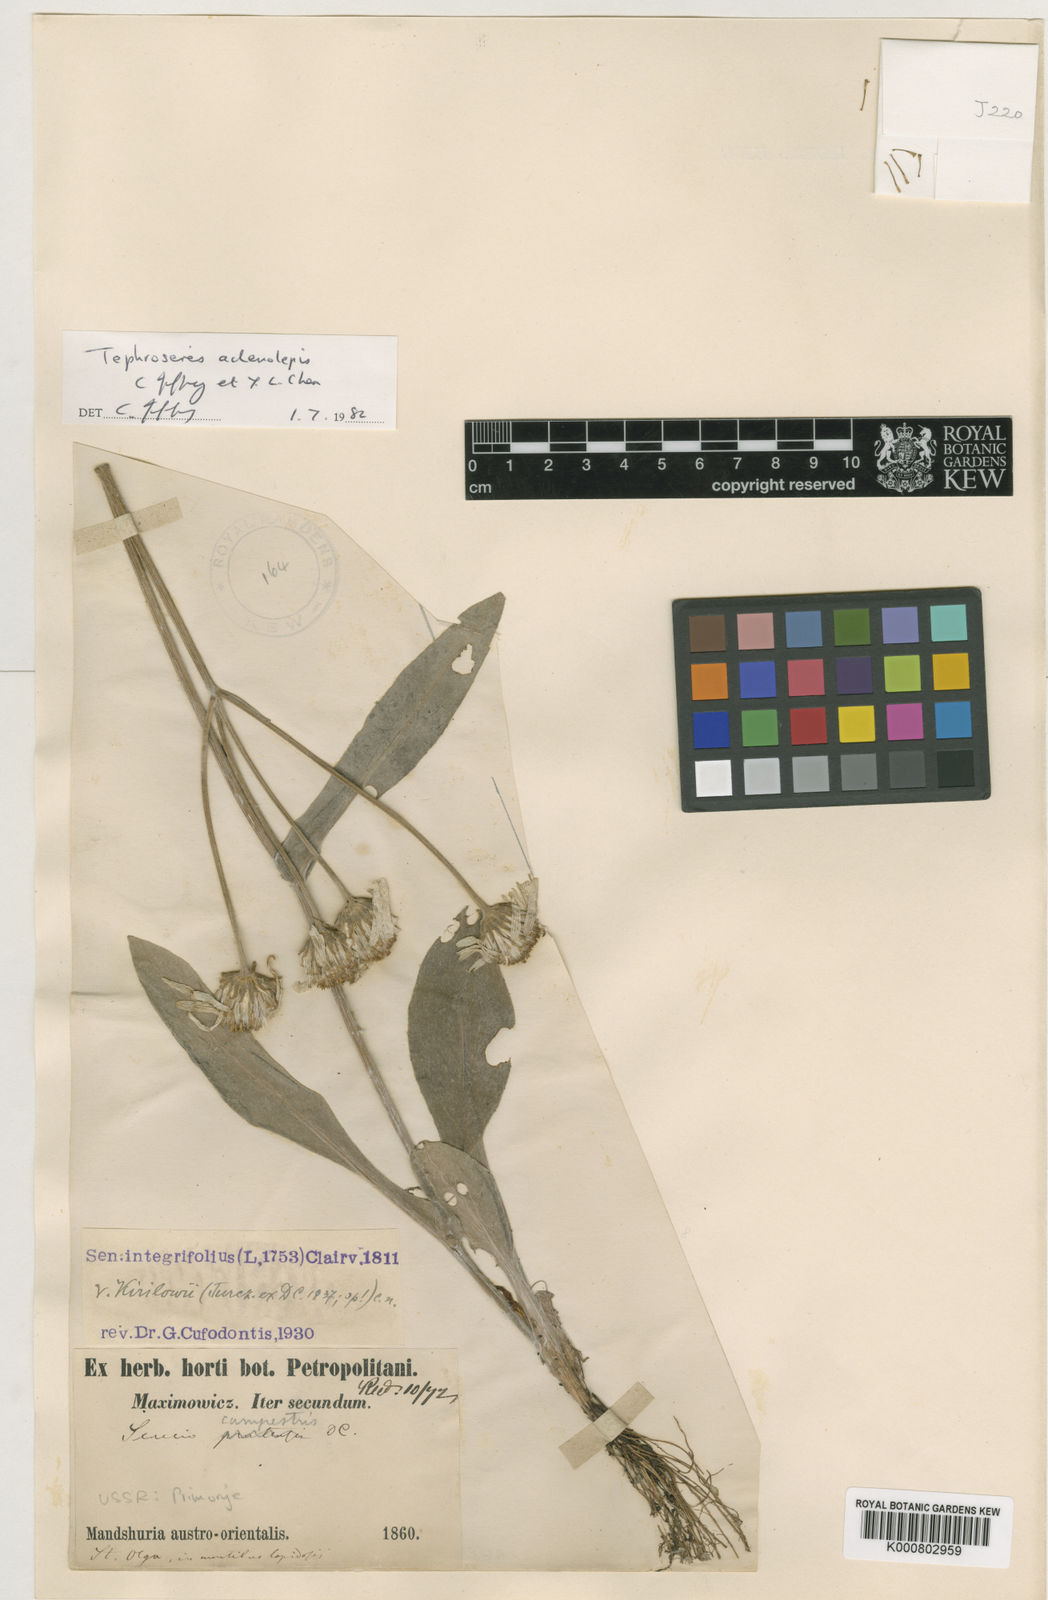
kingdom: Plantae
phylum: Tracheophyta
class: Magnoliopsida
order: Asterales
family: Asteraceae
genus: Tephroseris
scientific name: Tephroseris adenolepis
